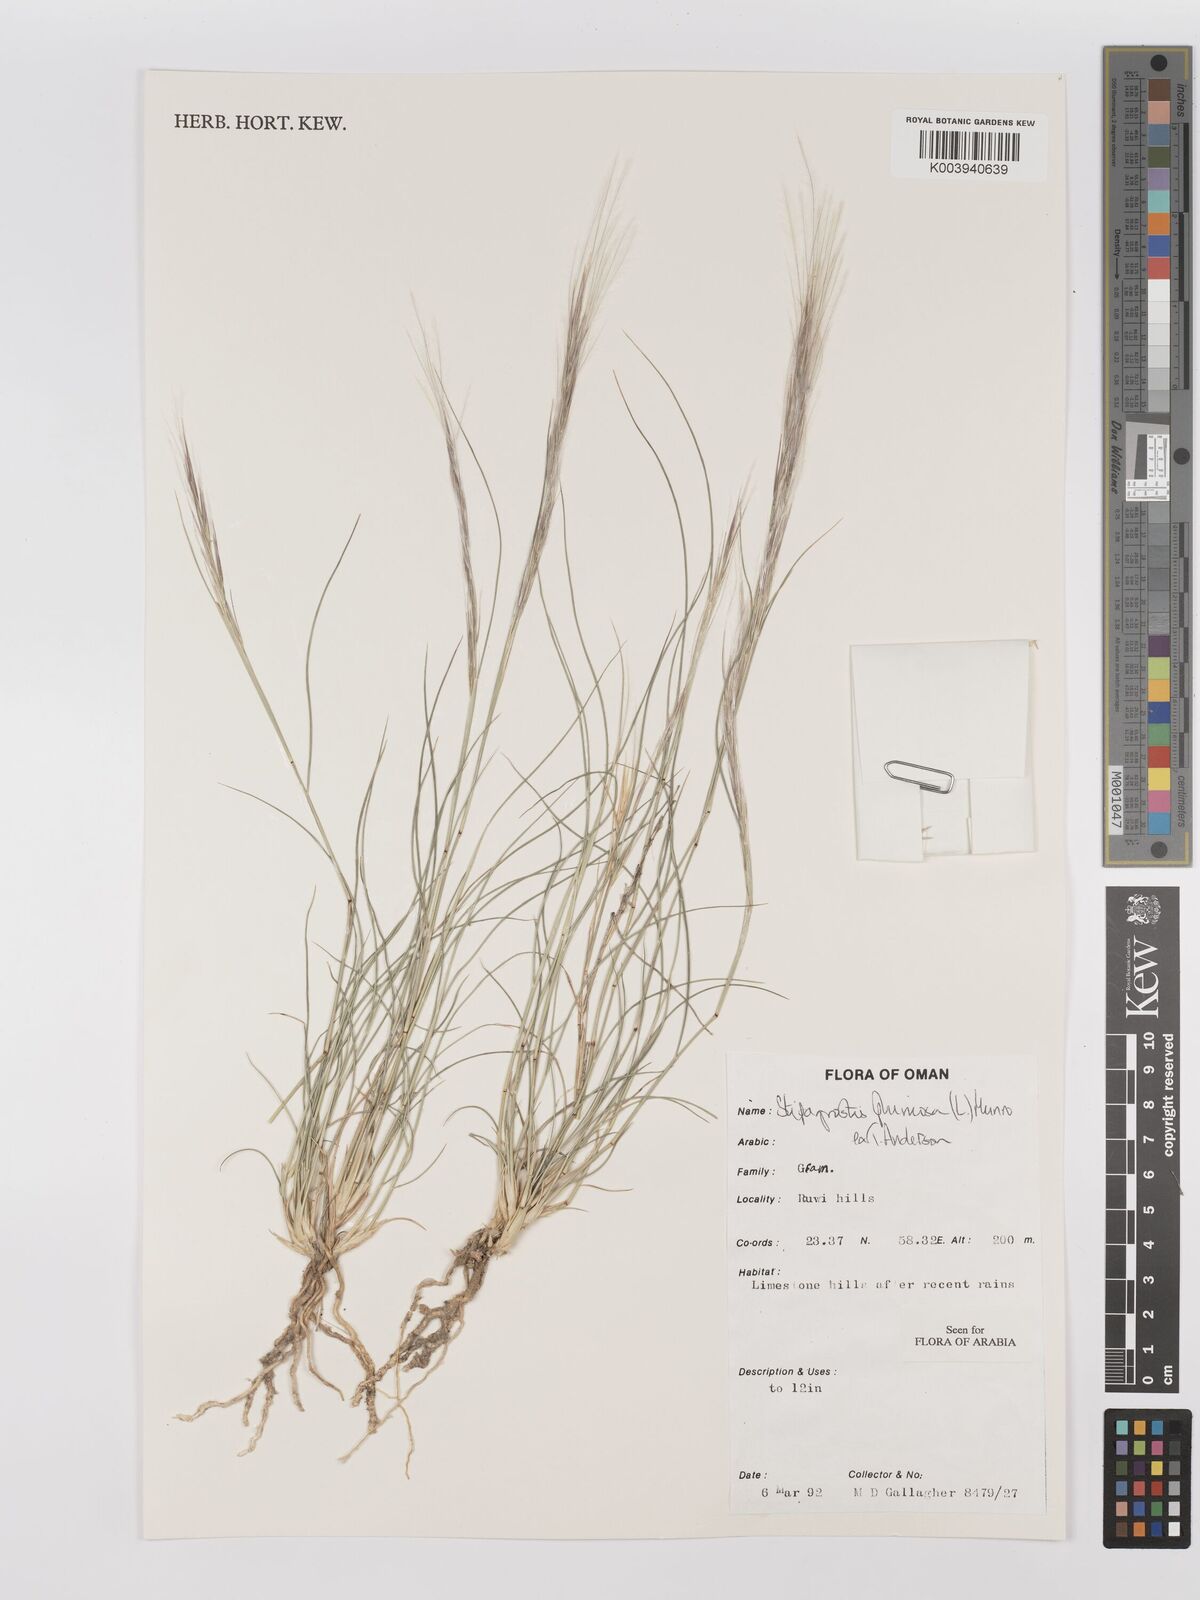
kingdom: Plantae
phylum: Tracheophyta
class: Liliopsida
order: Poales
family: Poaceae
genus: Stipagrostis
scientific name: Stipagrostis plumosa
